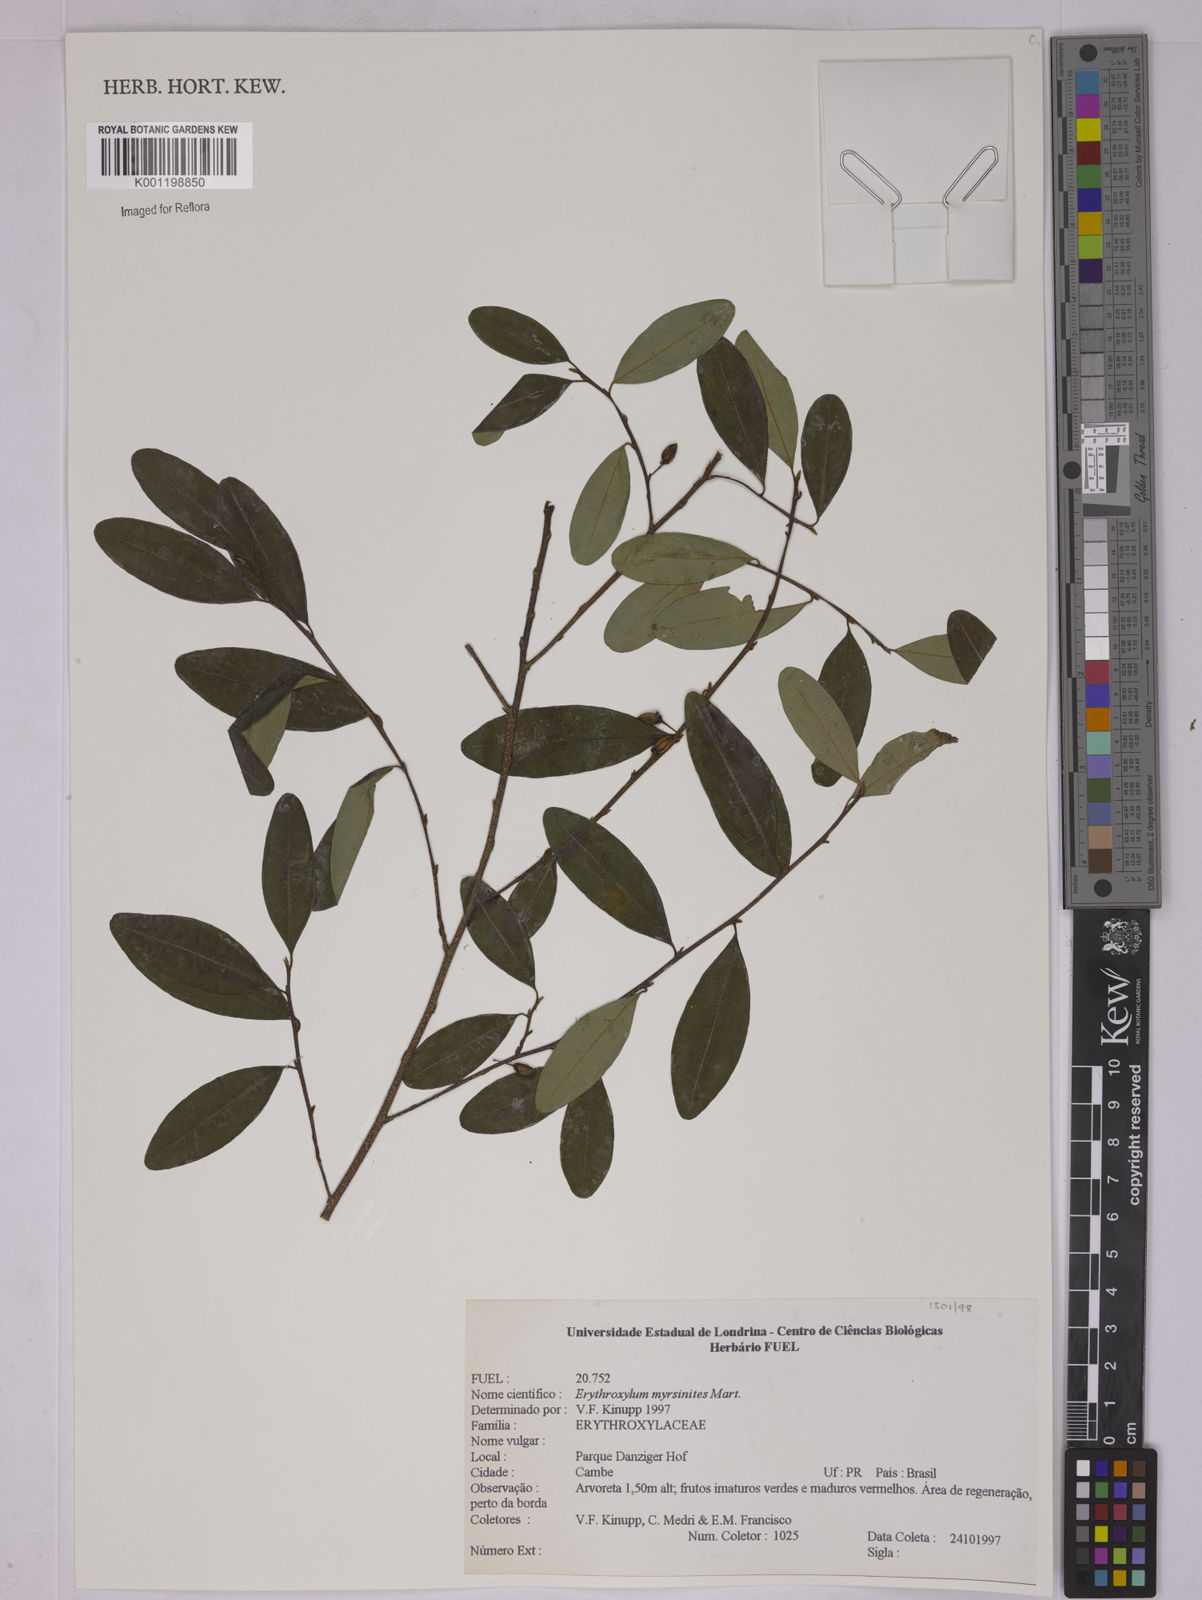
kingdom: Plantae
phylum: Tracheophyta
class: Magnoliopsida
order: Malpighiales
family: Erythroxylaceae
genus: Erythroxylum
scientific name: Erythroxylum myrsinites
